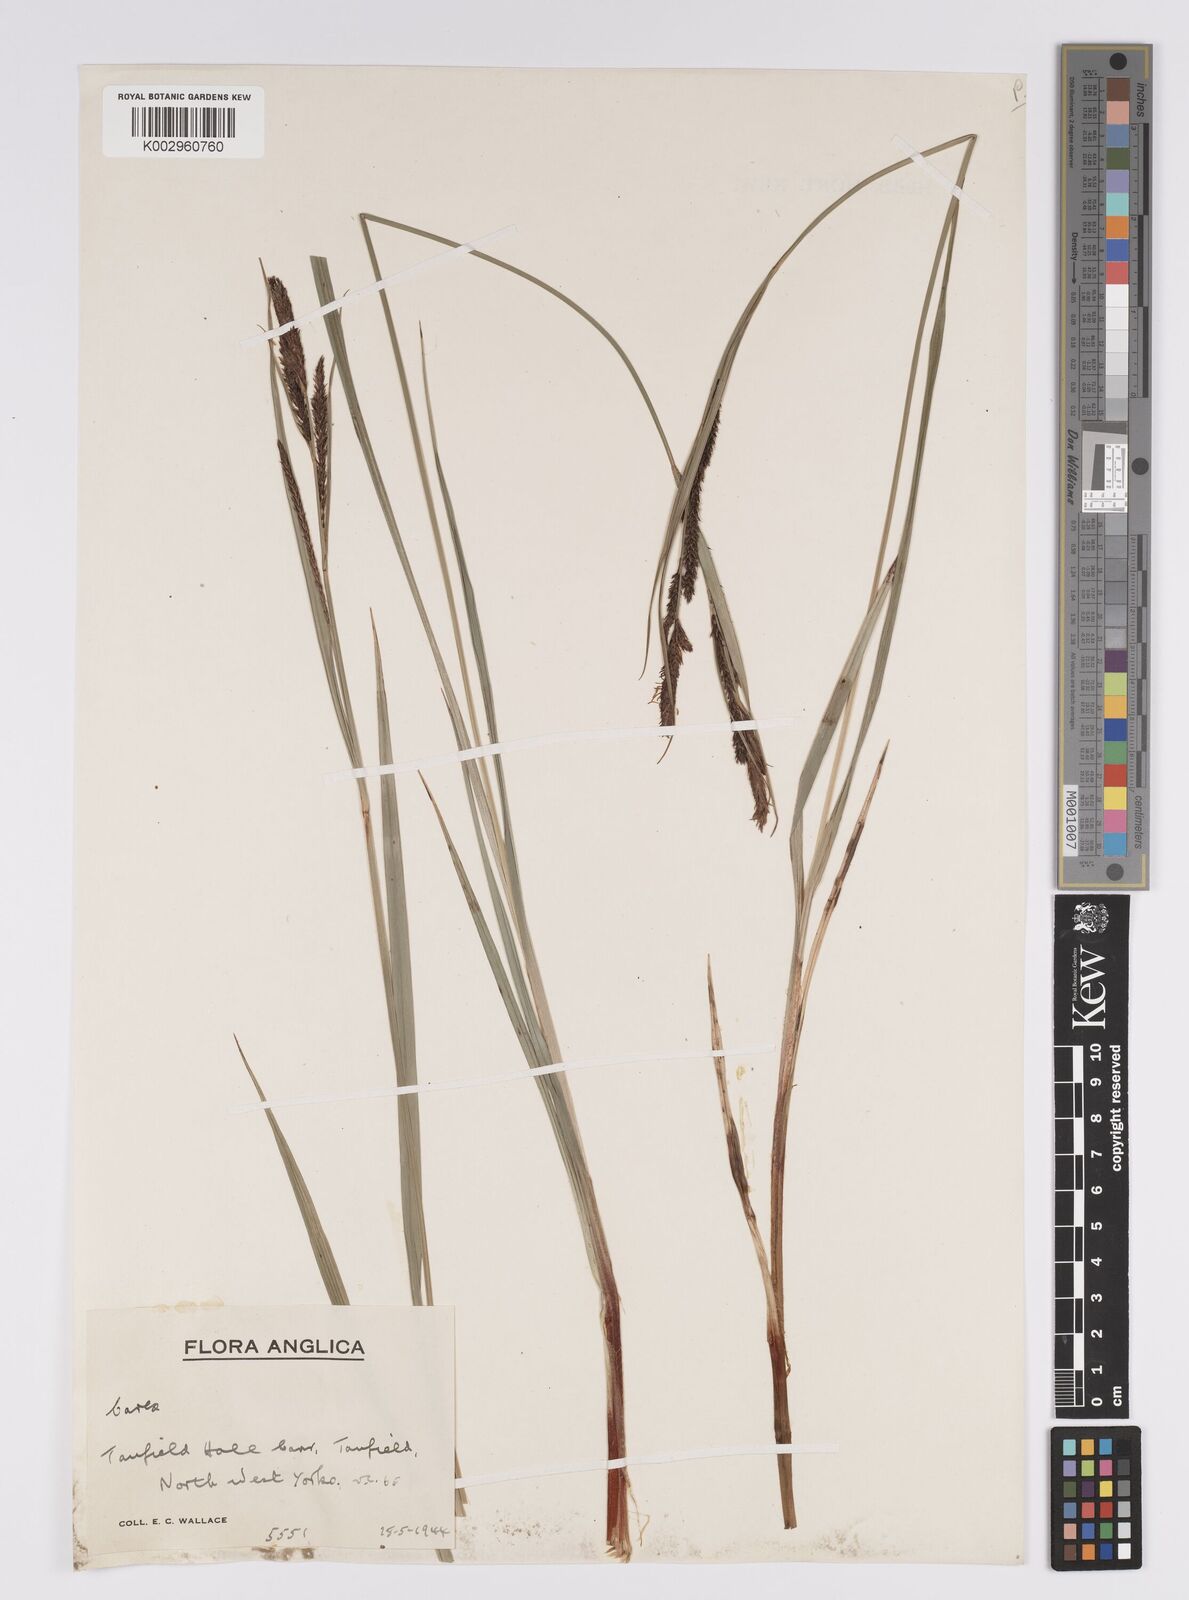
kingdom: Plantae
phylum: Tracheophyta
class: Liliopsida
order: Poales
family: Cyperaceae
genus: Carex
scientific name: Carex acutiformis
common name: Lesser pond-sedge
